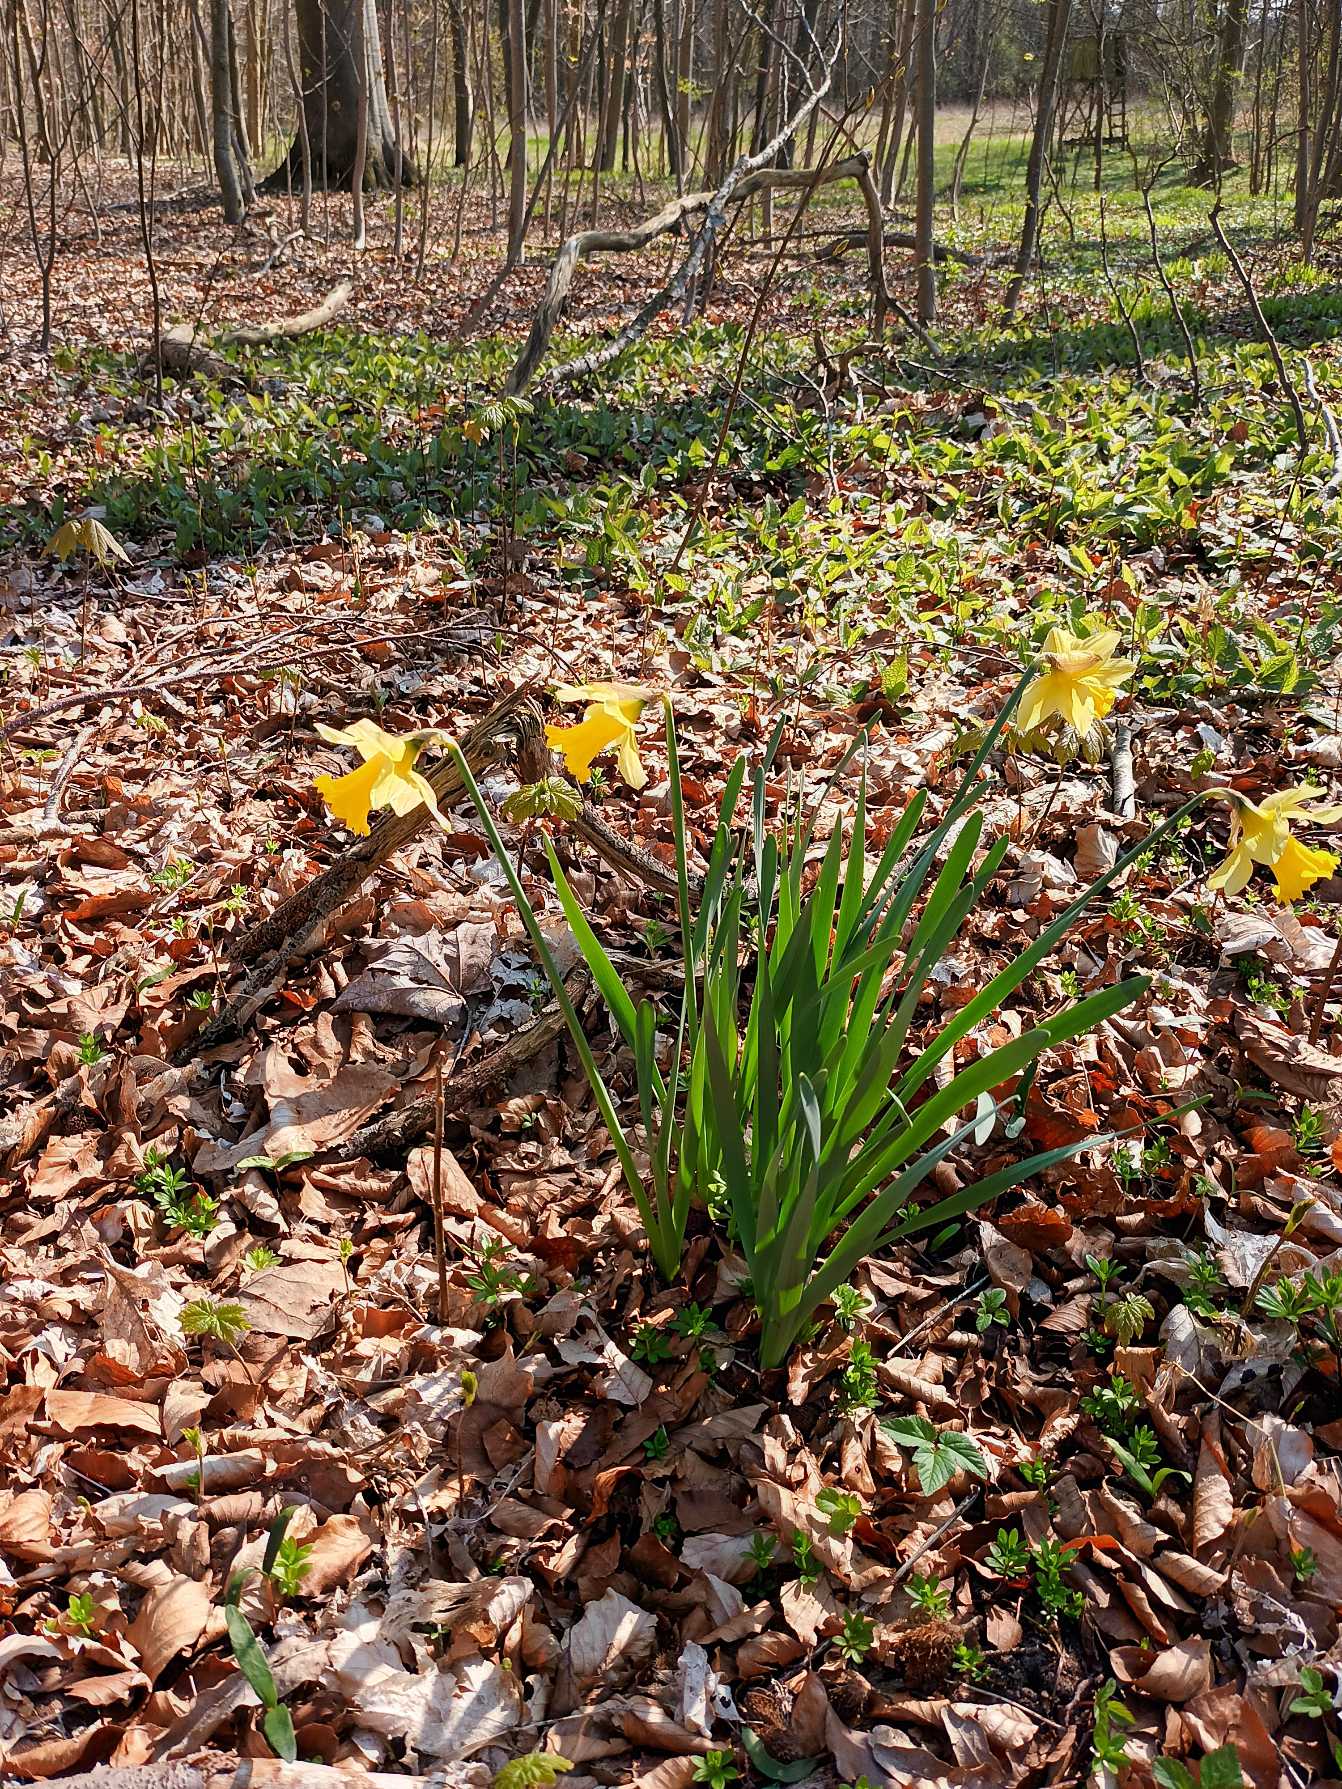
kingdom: Plantae
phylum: Tracheophyta
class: Liliopsida
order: Asparagales
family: Amaryllidaceae
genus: Narcissus
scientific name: Narcissus pseudonarcissus
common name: Påskelilje
